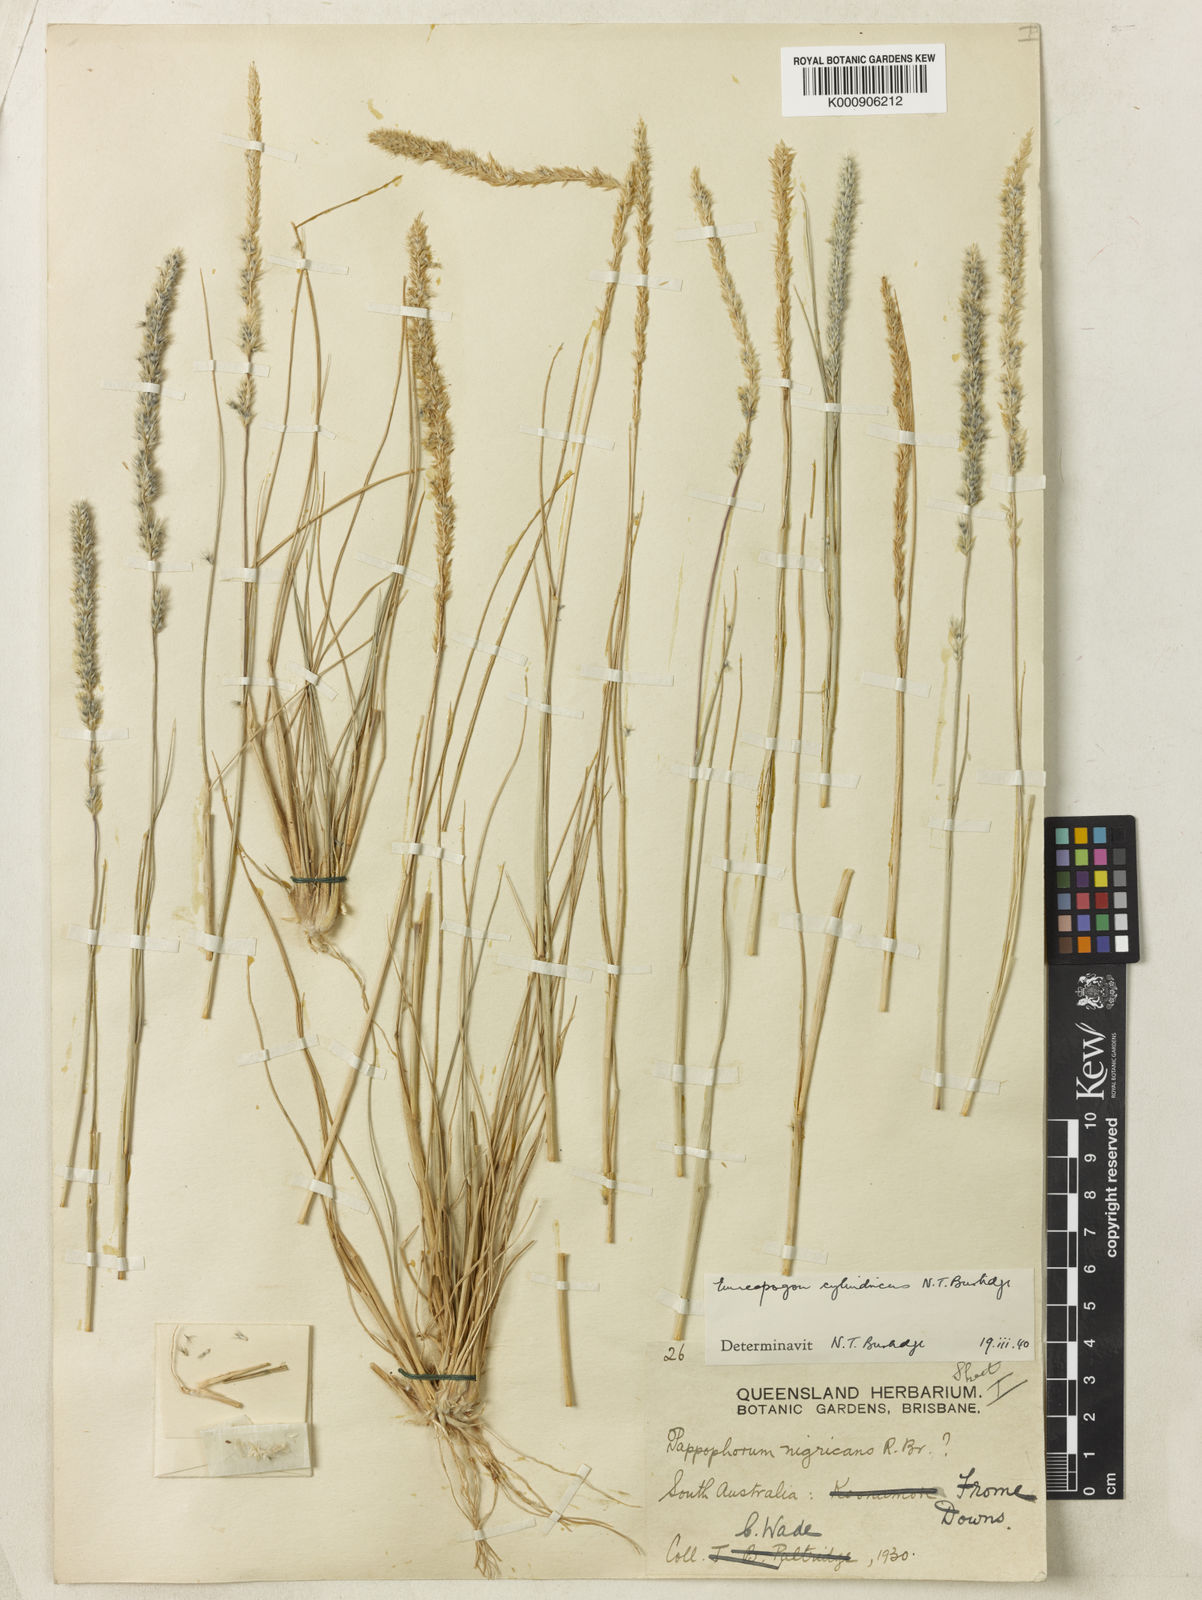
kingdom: Plantae
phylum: Tracheophyta
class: Liliopsida
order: Poales
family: Poaceae
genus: Enneapogon
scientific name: Enneapogon cylindricus
